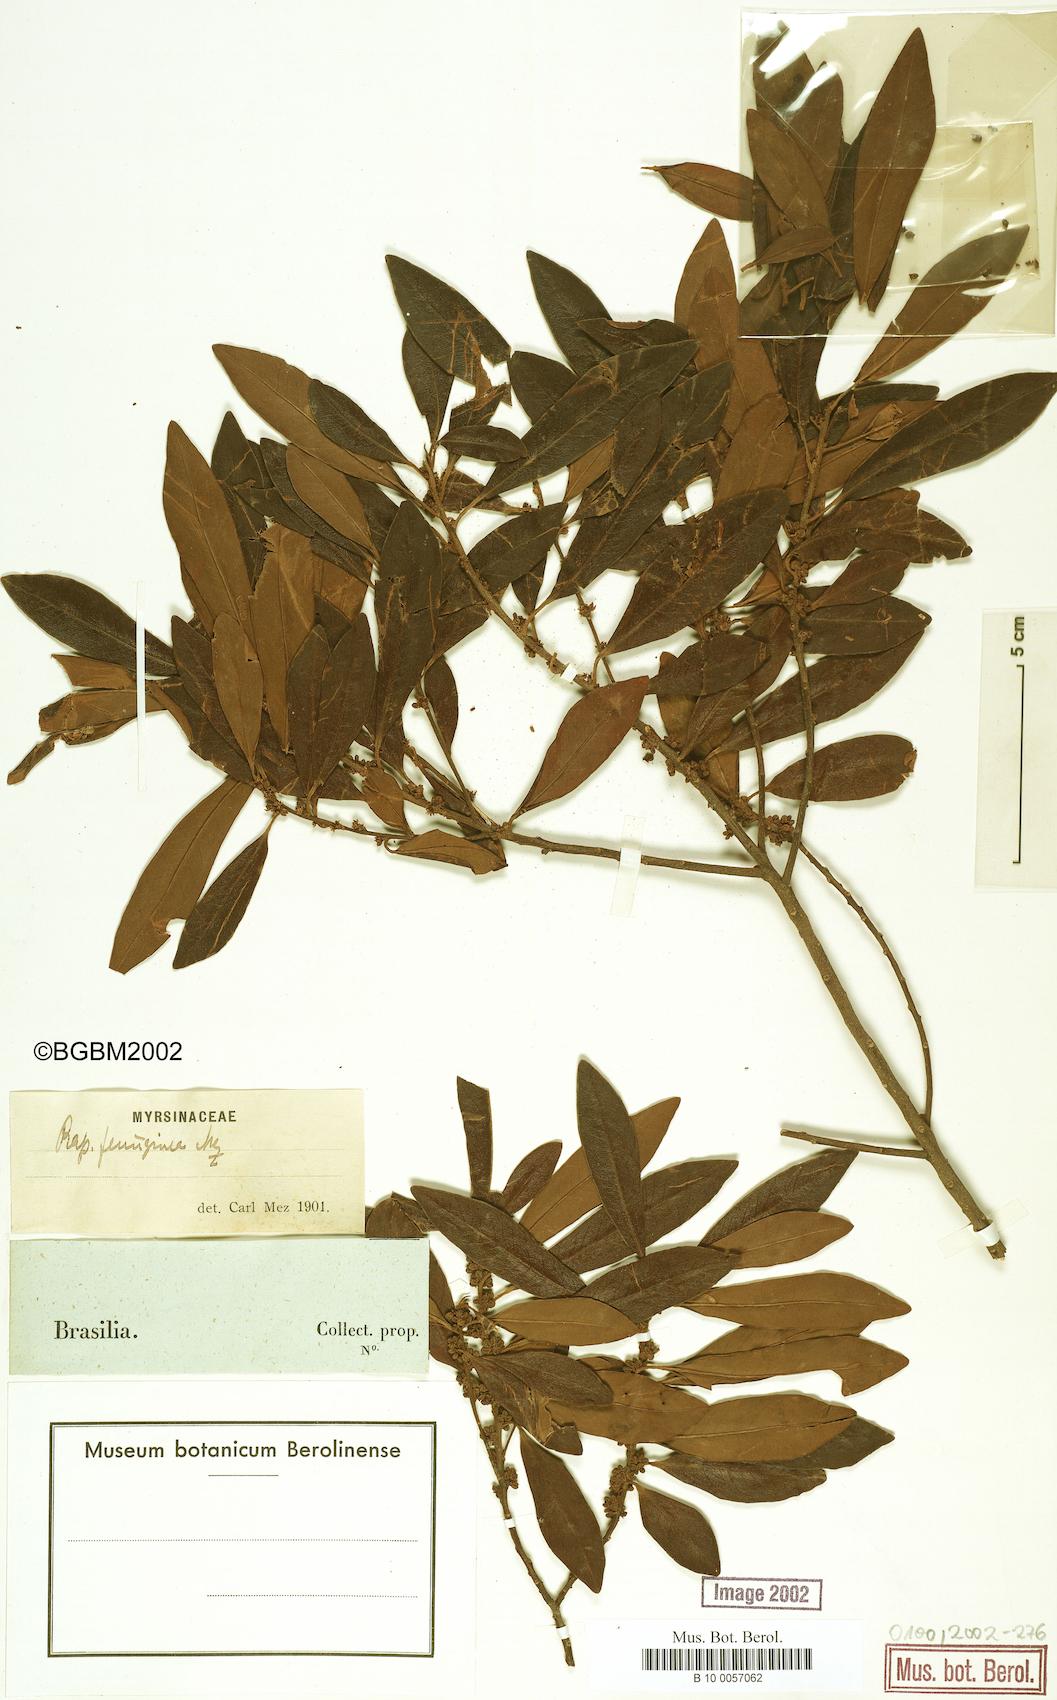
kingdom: Plantae
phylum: Tracheophyta
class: Magnoliopsida
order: Ericales
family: Primulaceae
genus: Myrsine
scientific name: Myrsine coriacea
